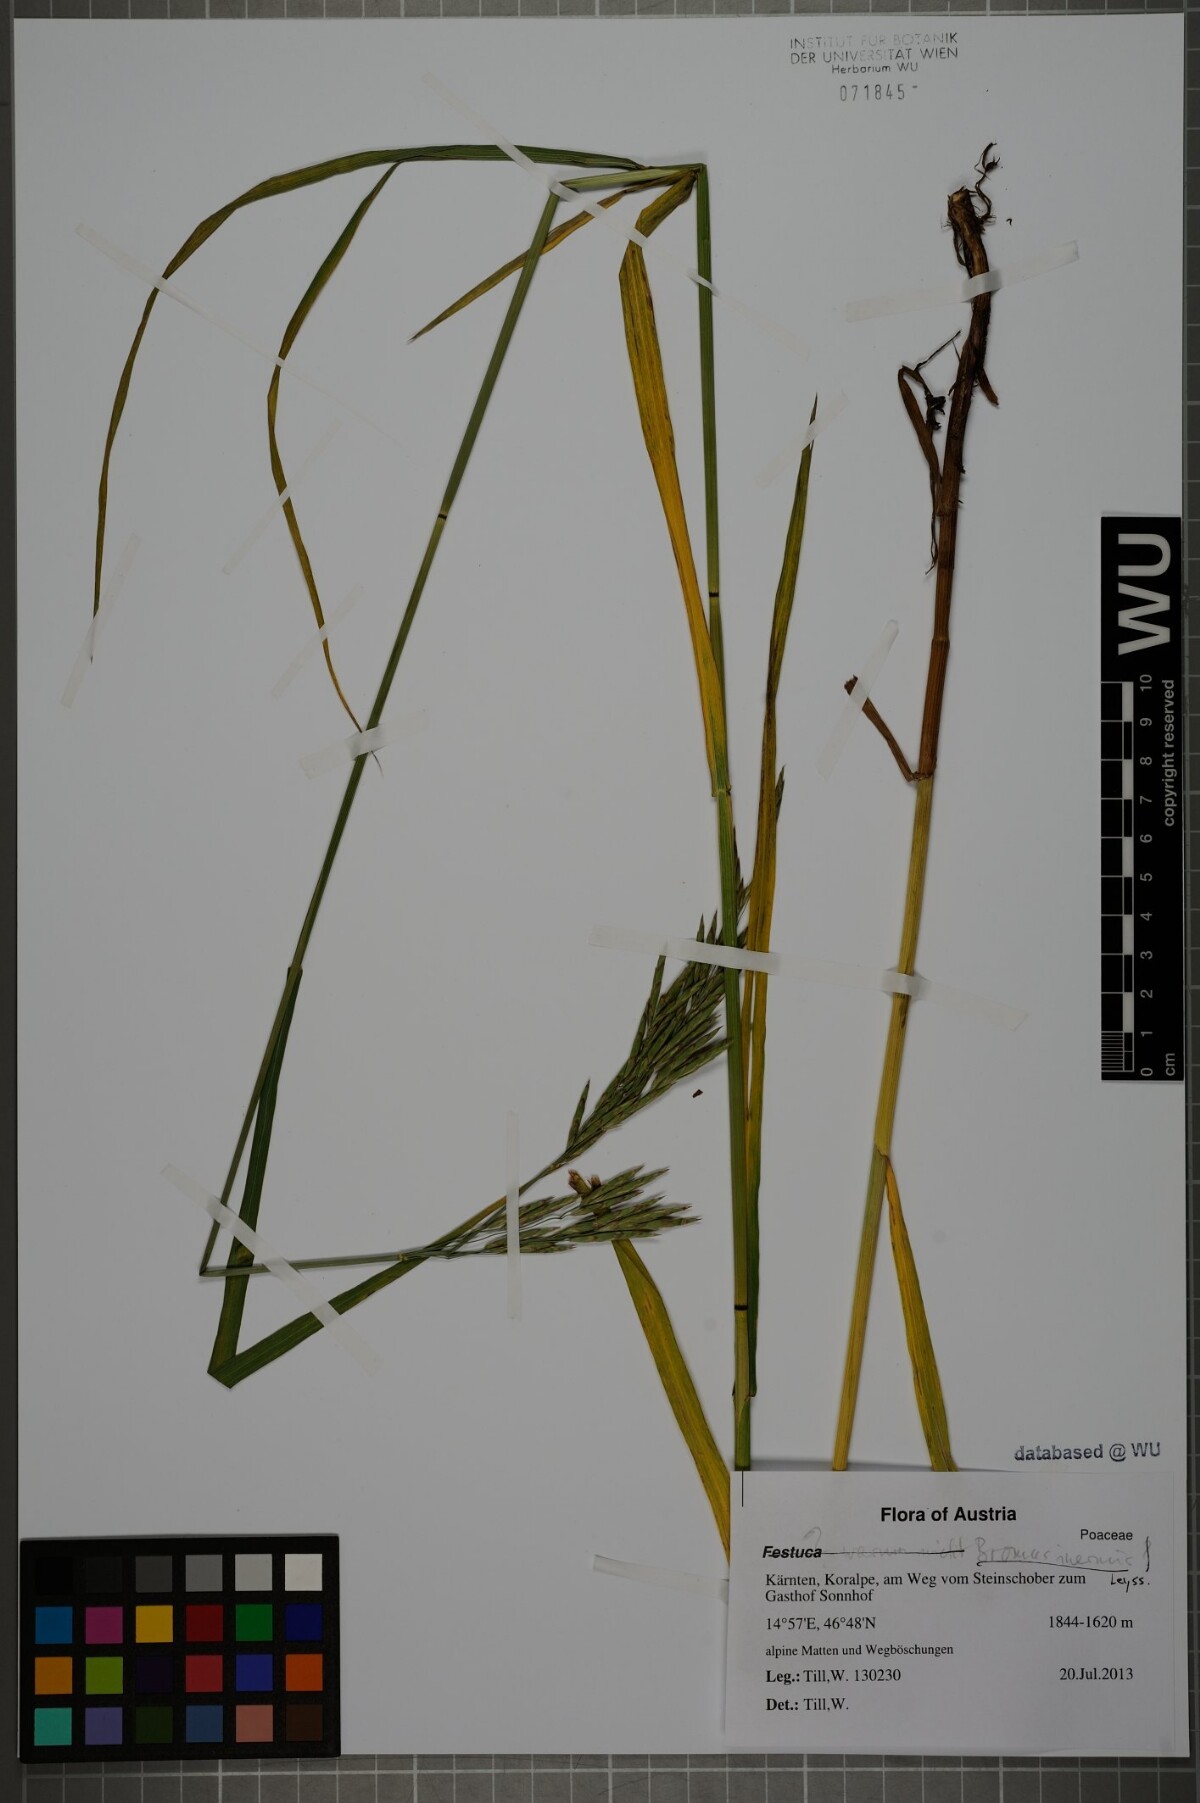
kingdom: Plantae
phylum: Tracheophyta
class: Liliopsida
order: Poales
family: Poaceae
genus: Bromus
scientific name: Bromus inermis
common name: Smooth brome
